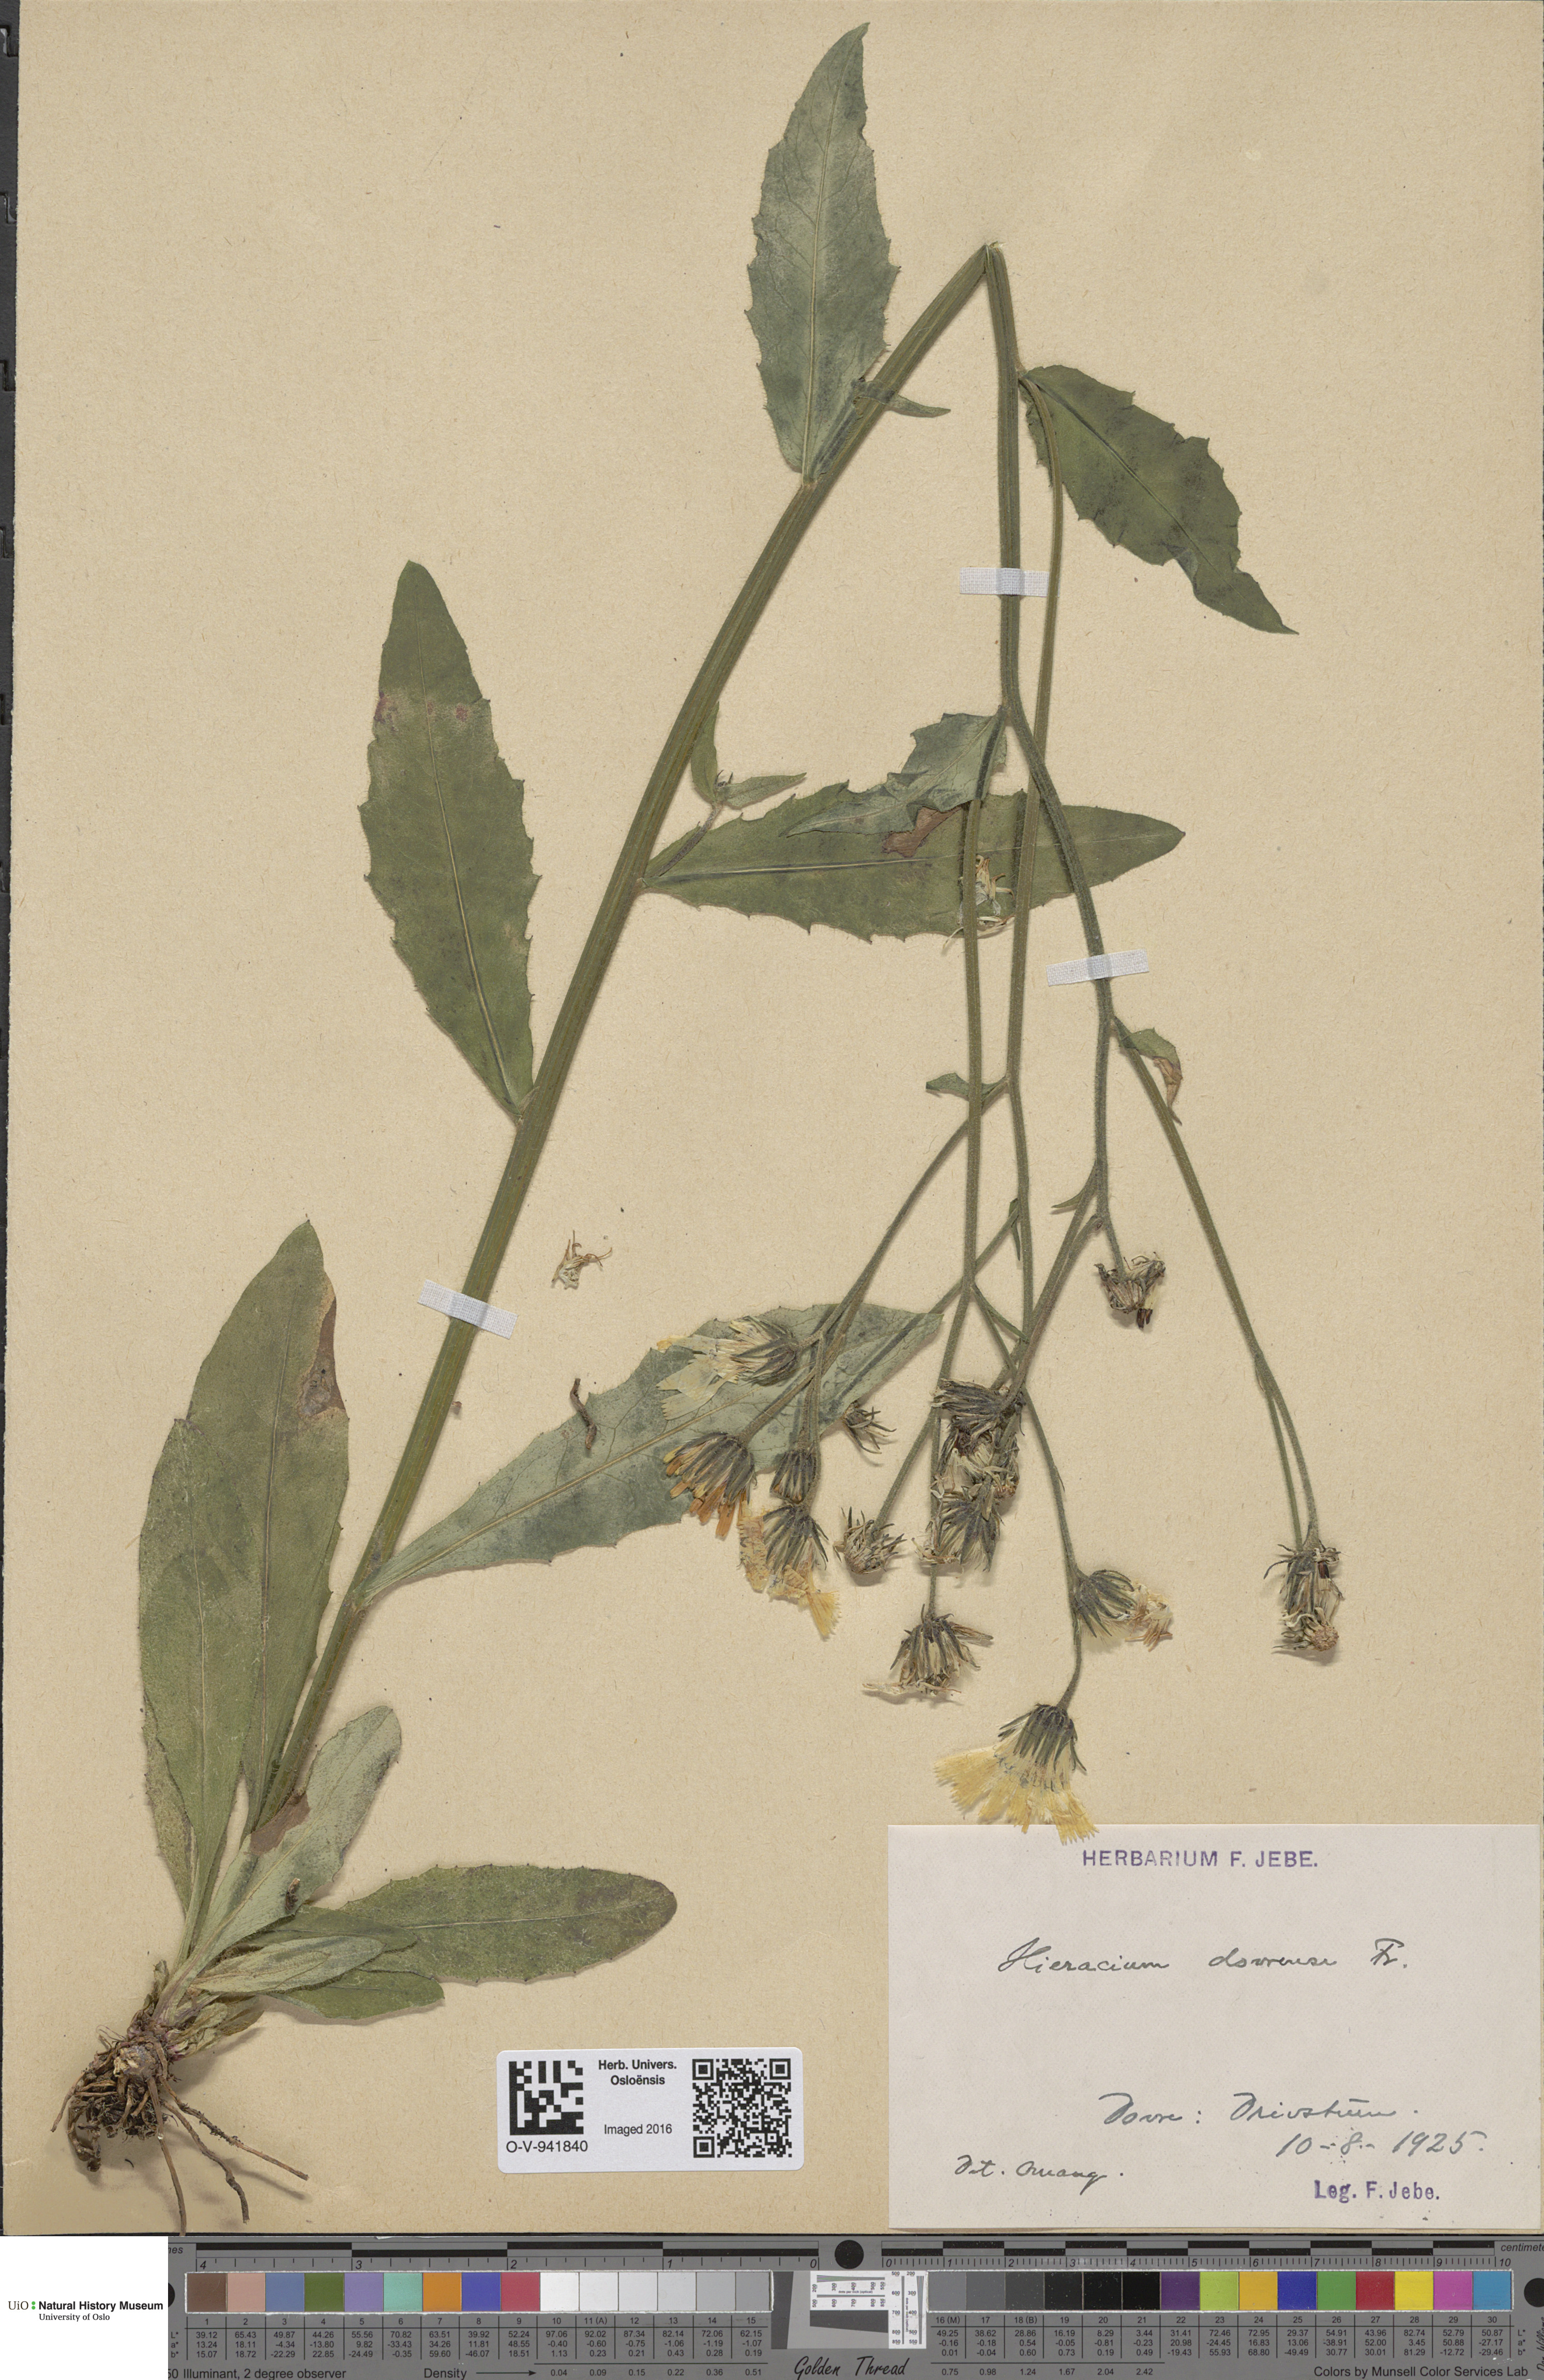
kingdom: Plantae
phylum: Tracheophyta
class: Magnoliopsida
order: Asterales
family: Asteraceae
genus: Hieracium
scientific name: Hieracium dovrense
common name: Dovre hawkweed
